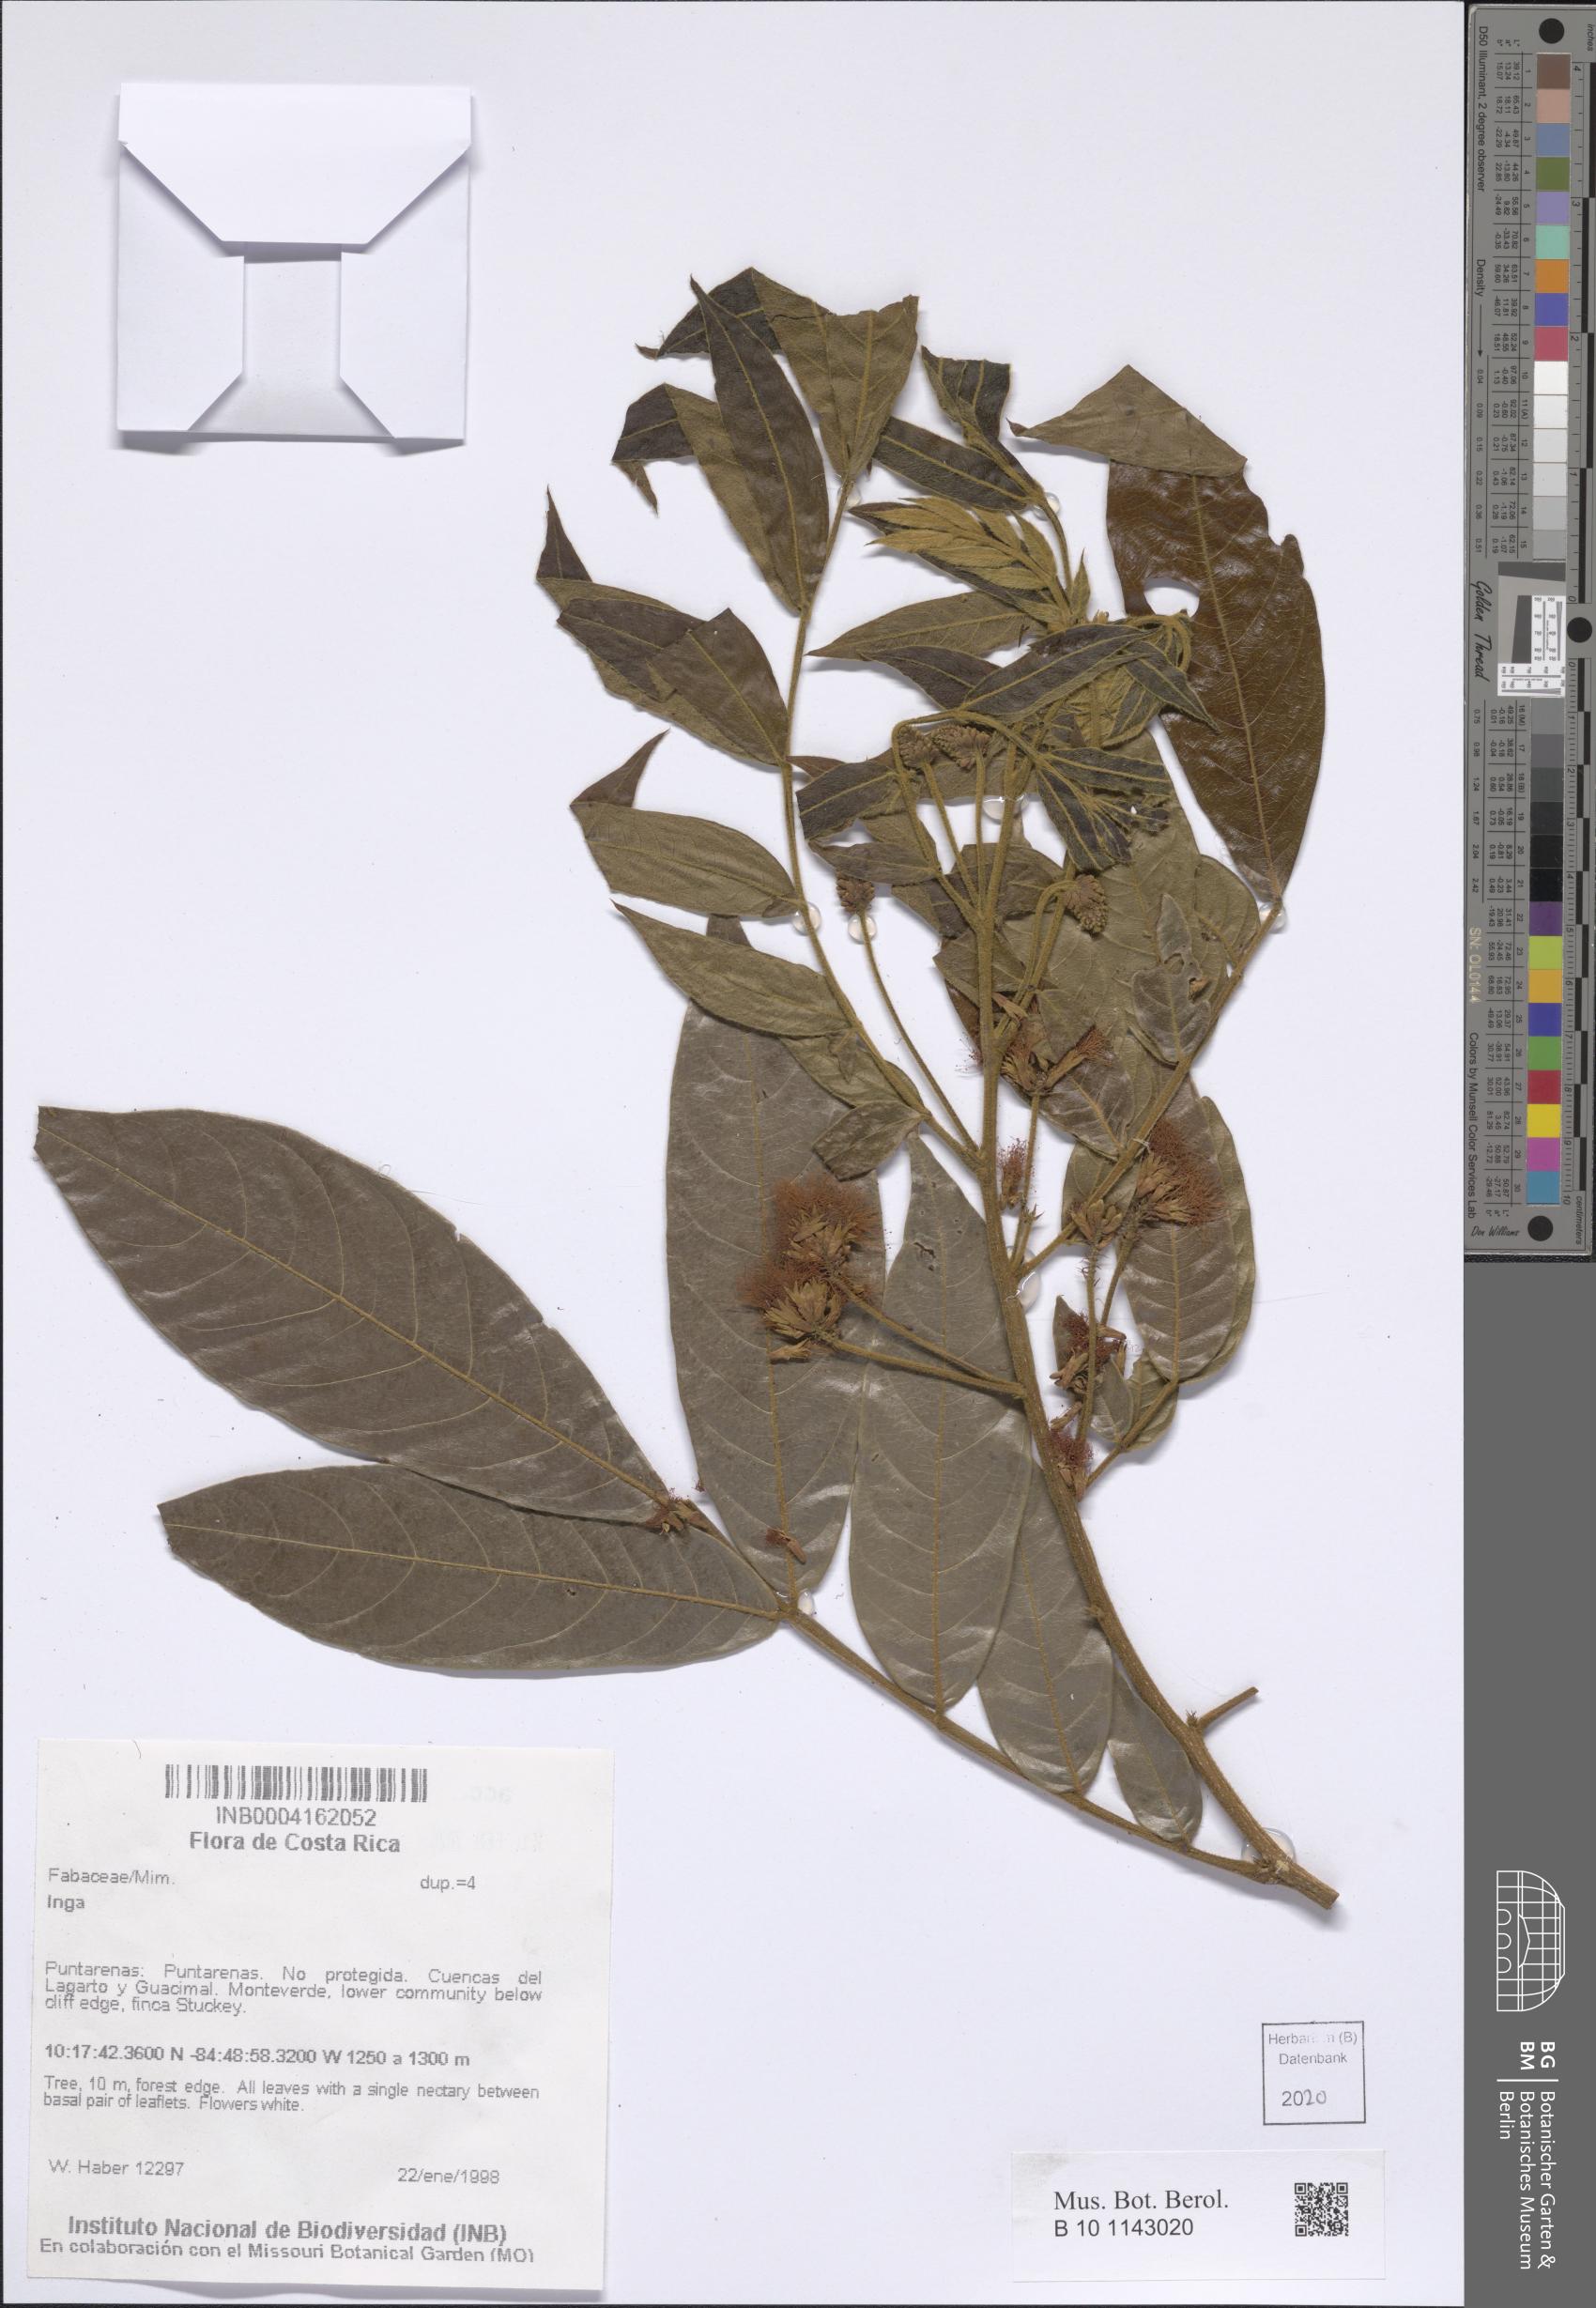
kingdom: Plantae
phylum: Tracheophyta
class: Magnoliopsida
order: Fabales
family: Fabaceae
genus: Inga
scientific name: Inga
